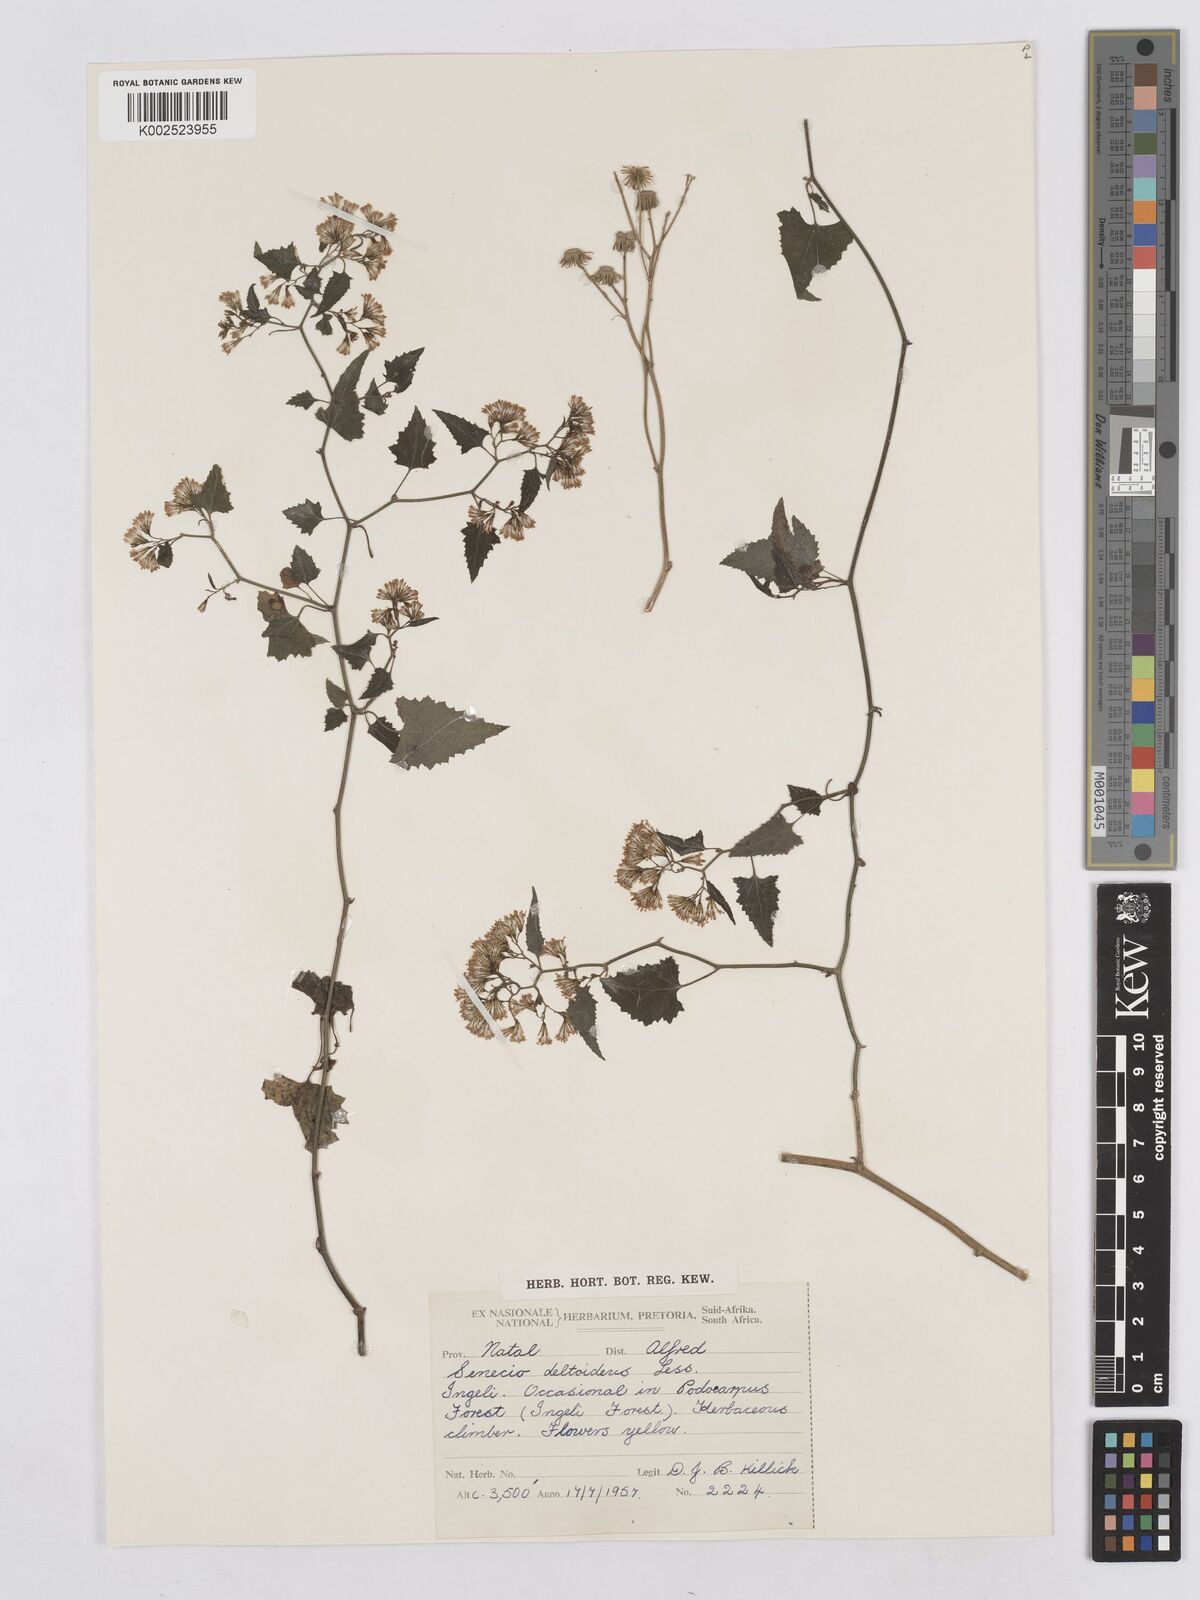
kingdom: Plantae
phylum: Tracheophyta
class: Magnoliopsida
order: Asterales
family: Asteraceae
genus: Senecio
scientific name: Senecio deltoideus
